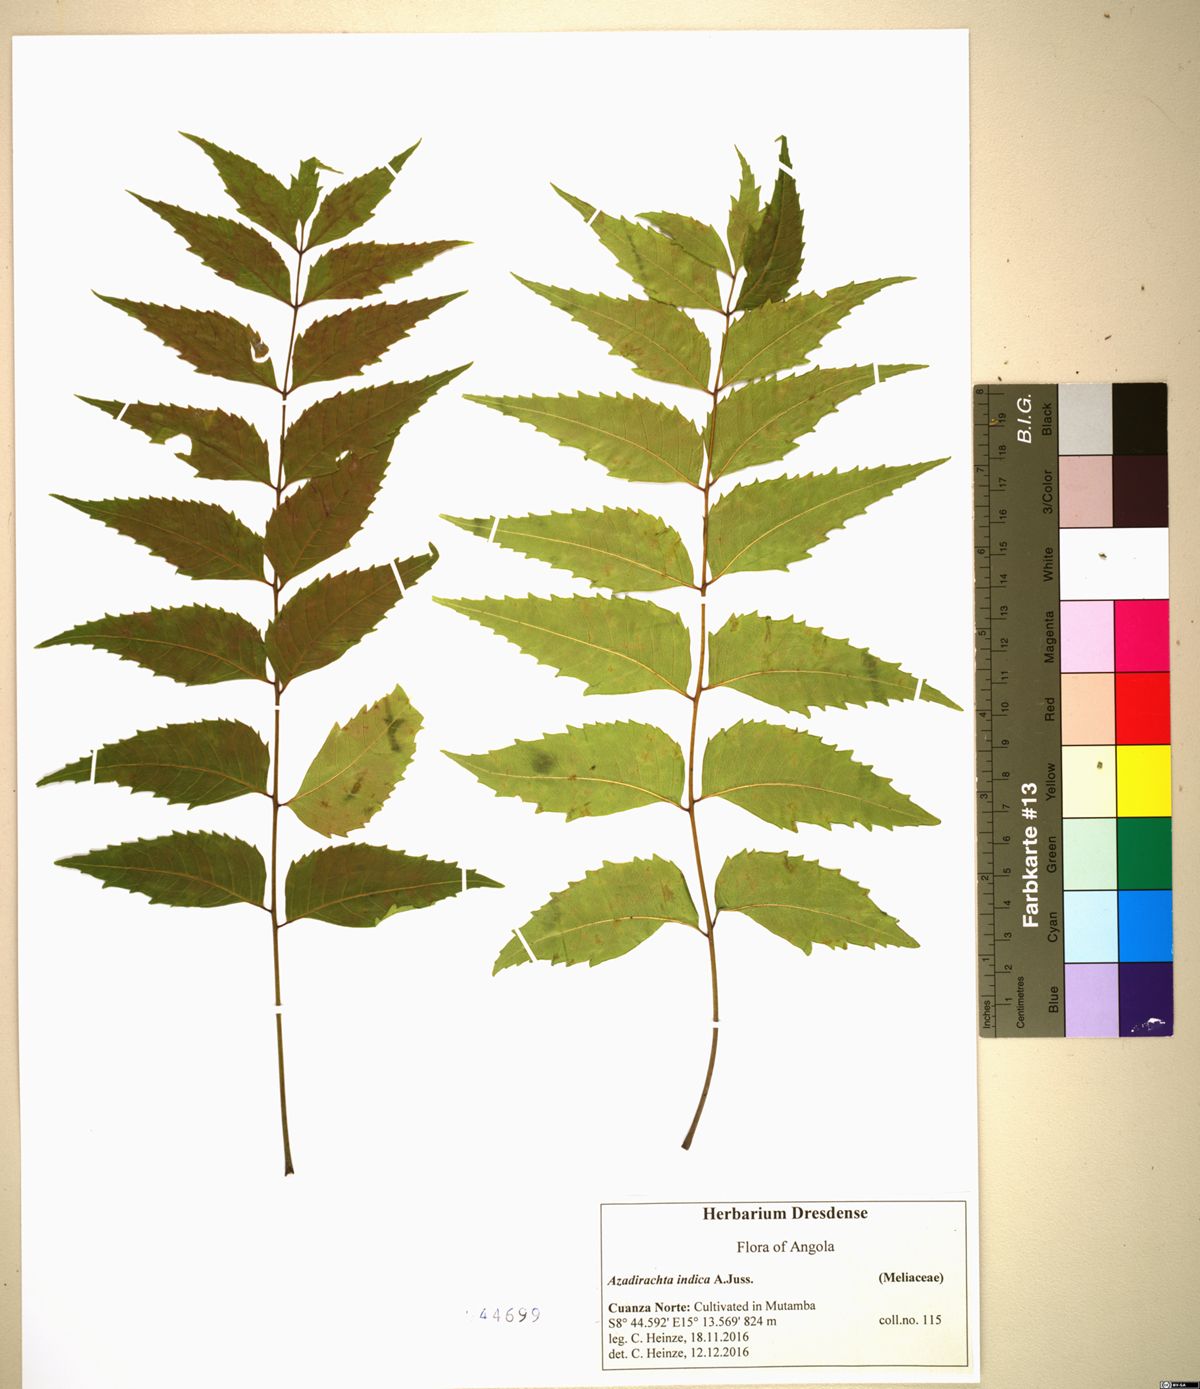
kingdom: Plantae
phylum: Tracheophyta
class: Magnoliopsida
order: Sapindales
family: Meliaceae
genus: Azadirachta
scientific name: Azadirachta indica
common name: Neem
